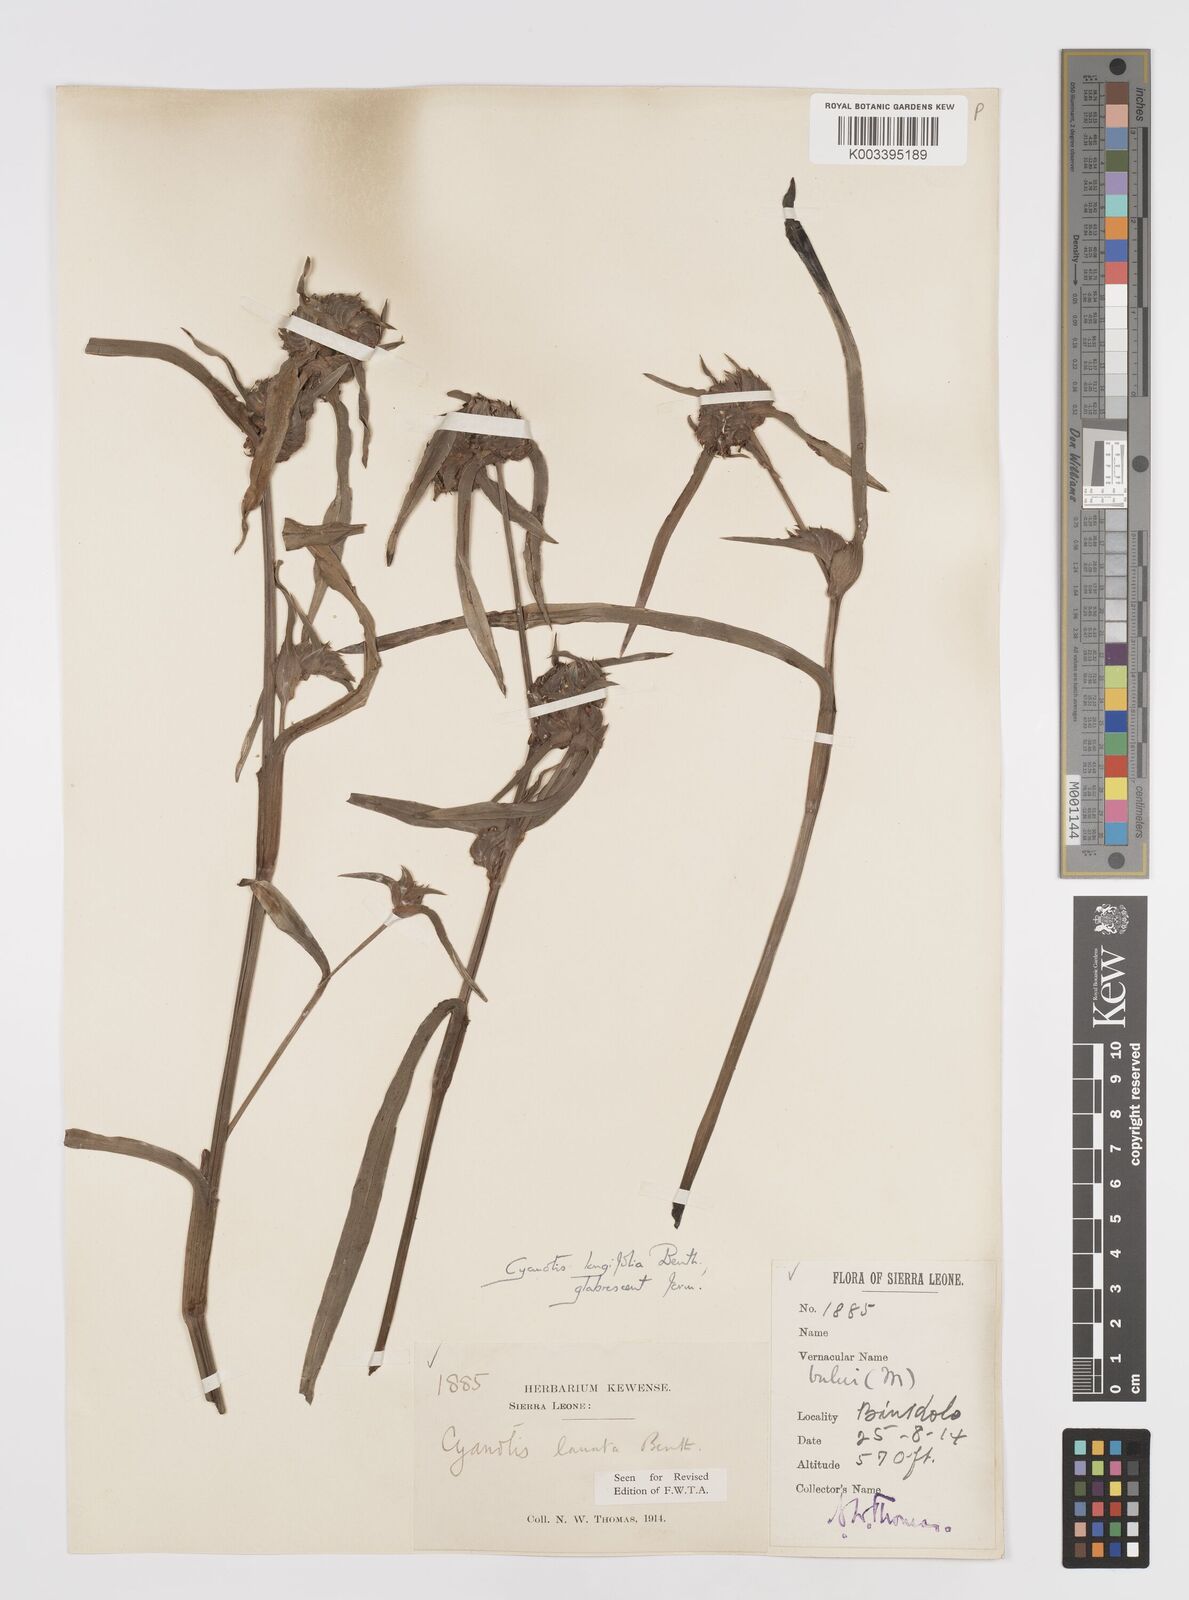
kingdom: Plantae
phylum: Tracheophyta
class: Liliopsida
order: Commelinales
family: Commelinaceae
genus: Cyanotis
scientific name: Cyanotis
